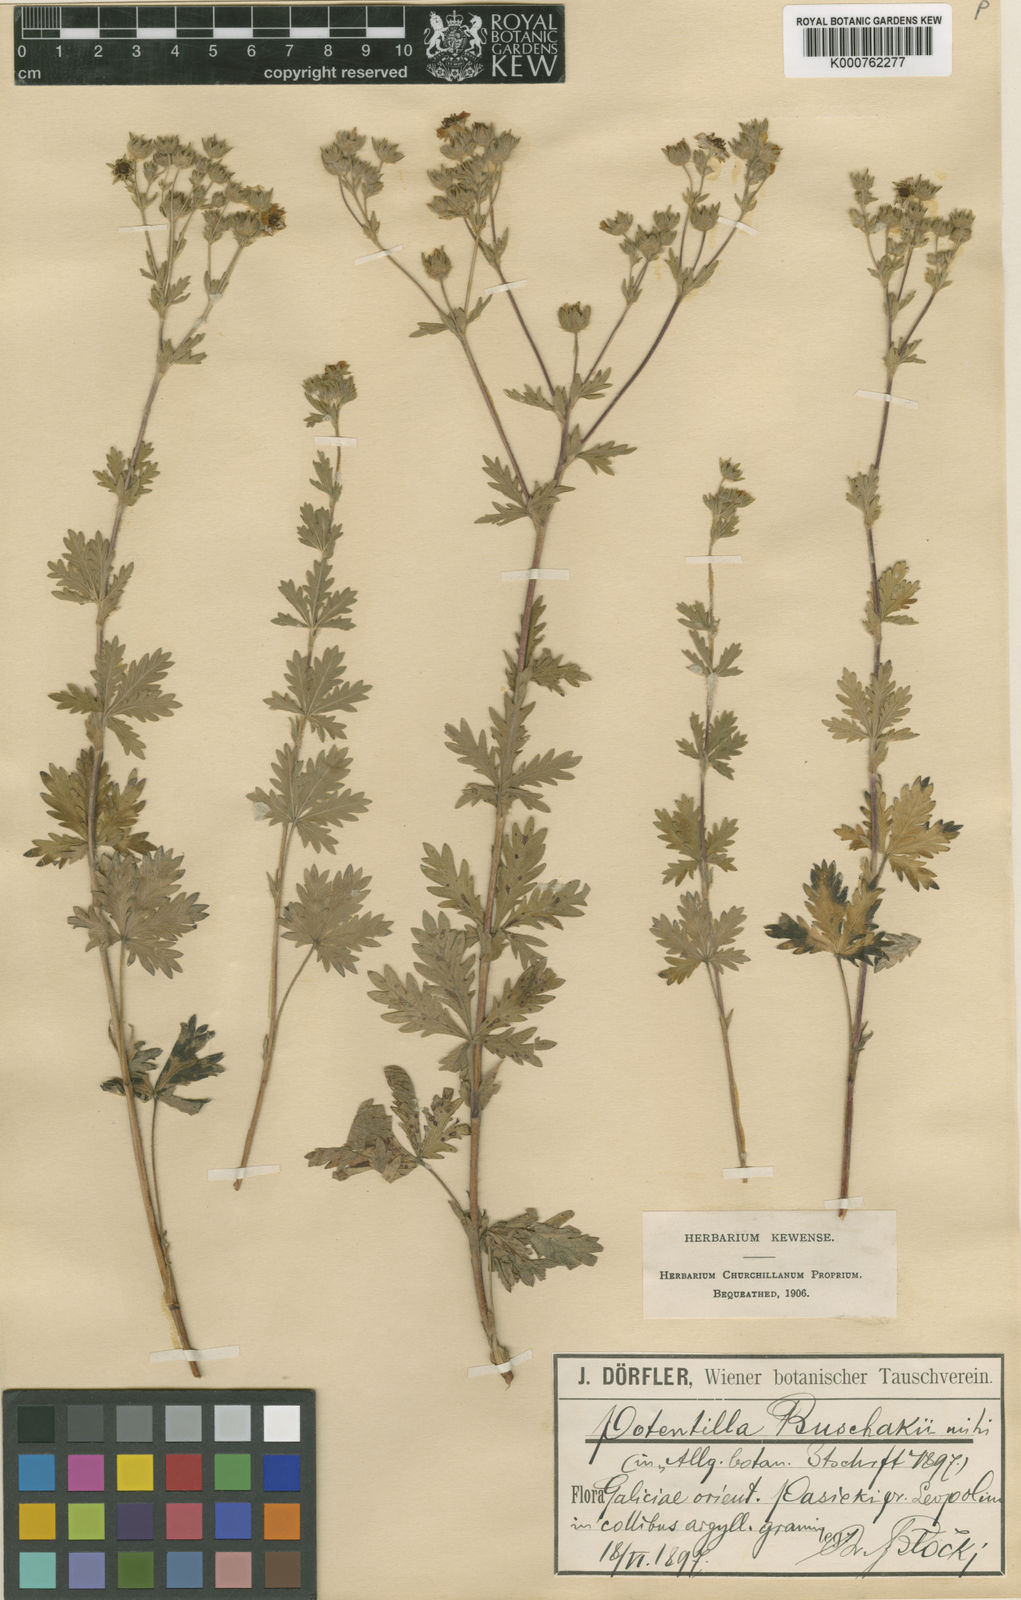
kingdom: Plantae
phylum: Tracheophyta
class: Magnoliopsida
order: Rosales
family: Rosaceae
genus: Potentilla
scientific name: Potentilla
